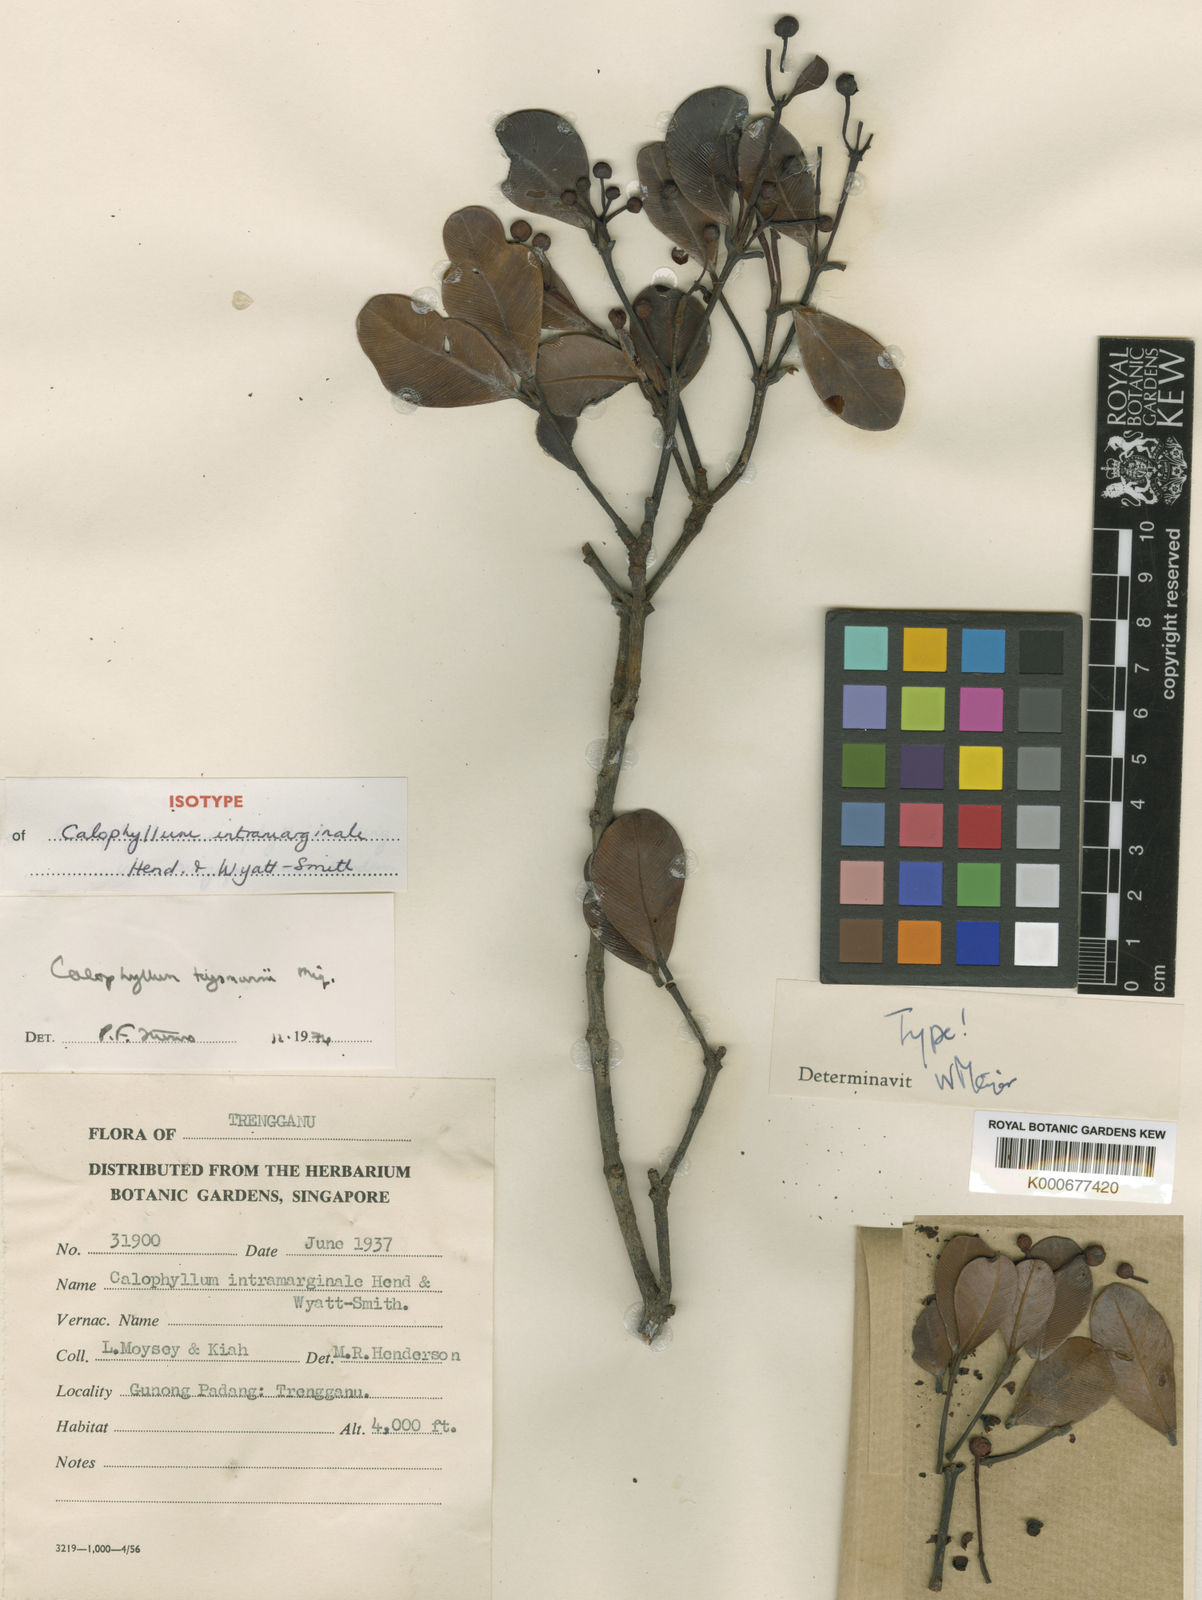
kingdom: Plantae
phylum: Tracheophyta
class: Magnoliopsida
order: Malpighiales
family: Calophyllaceae
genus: Calophyllum
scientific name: Calophyllum teysmannii
